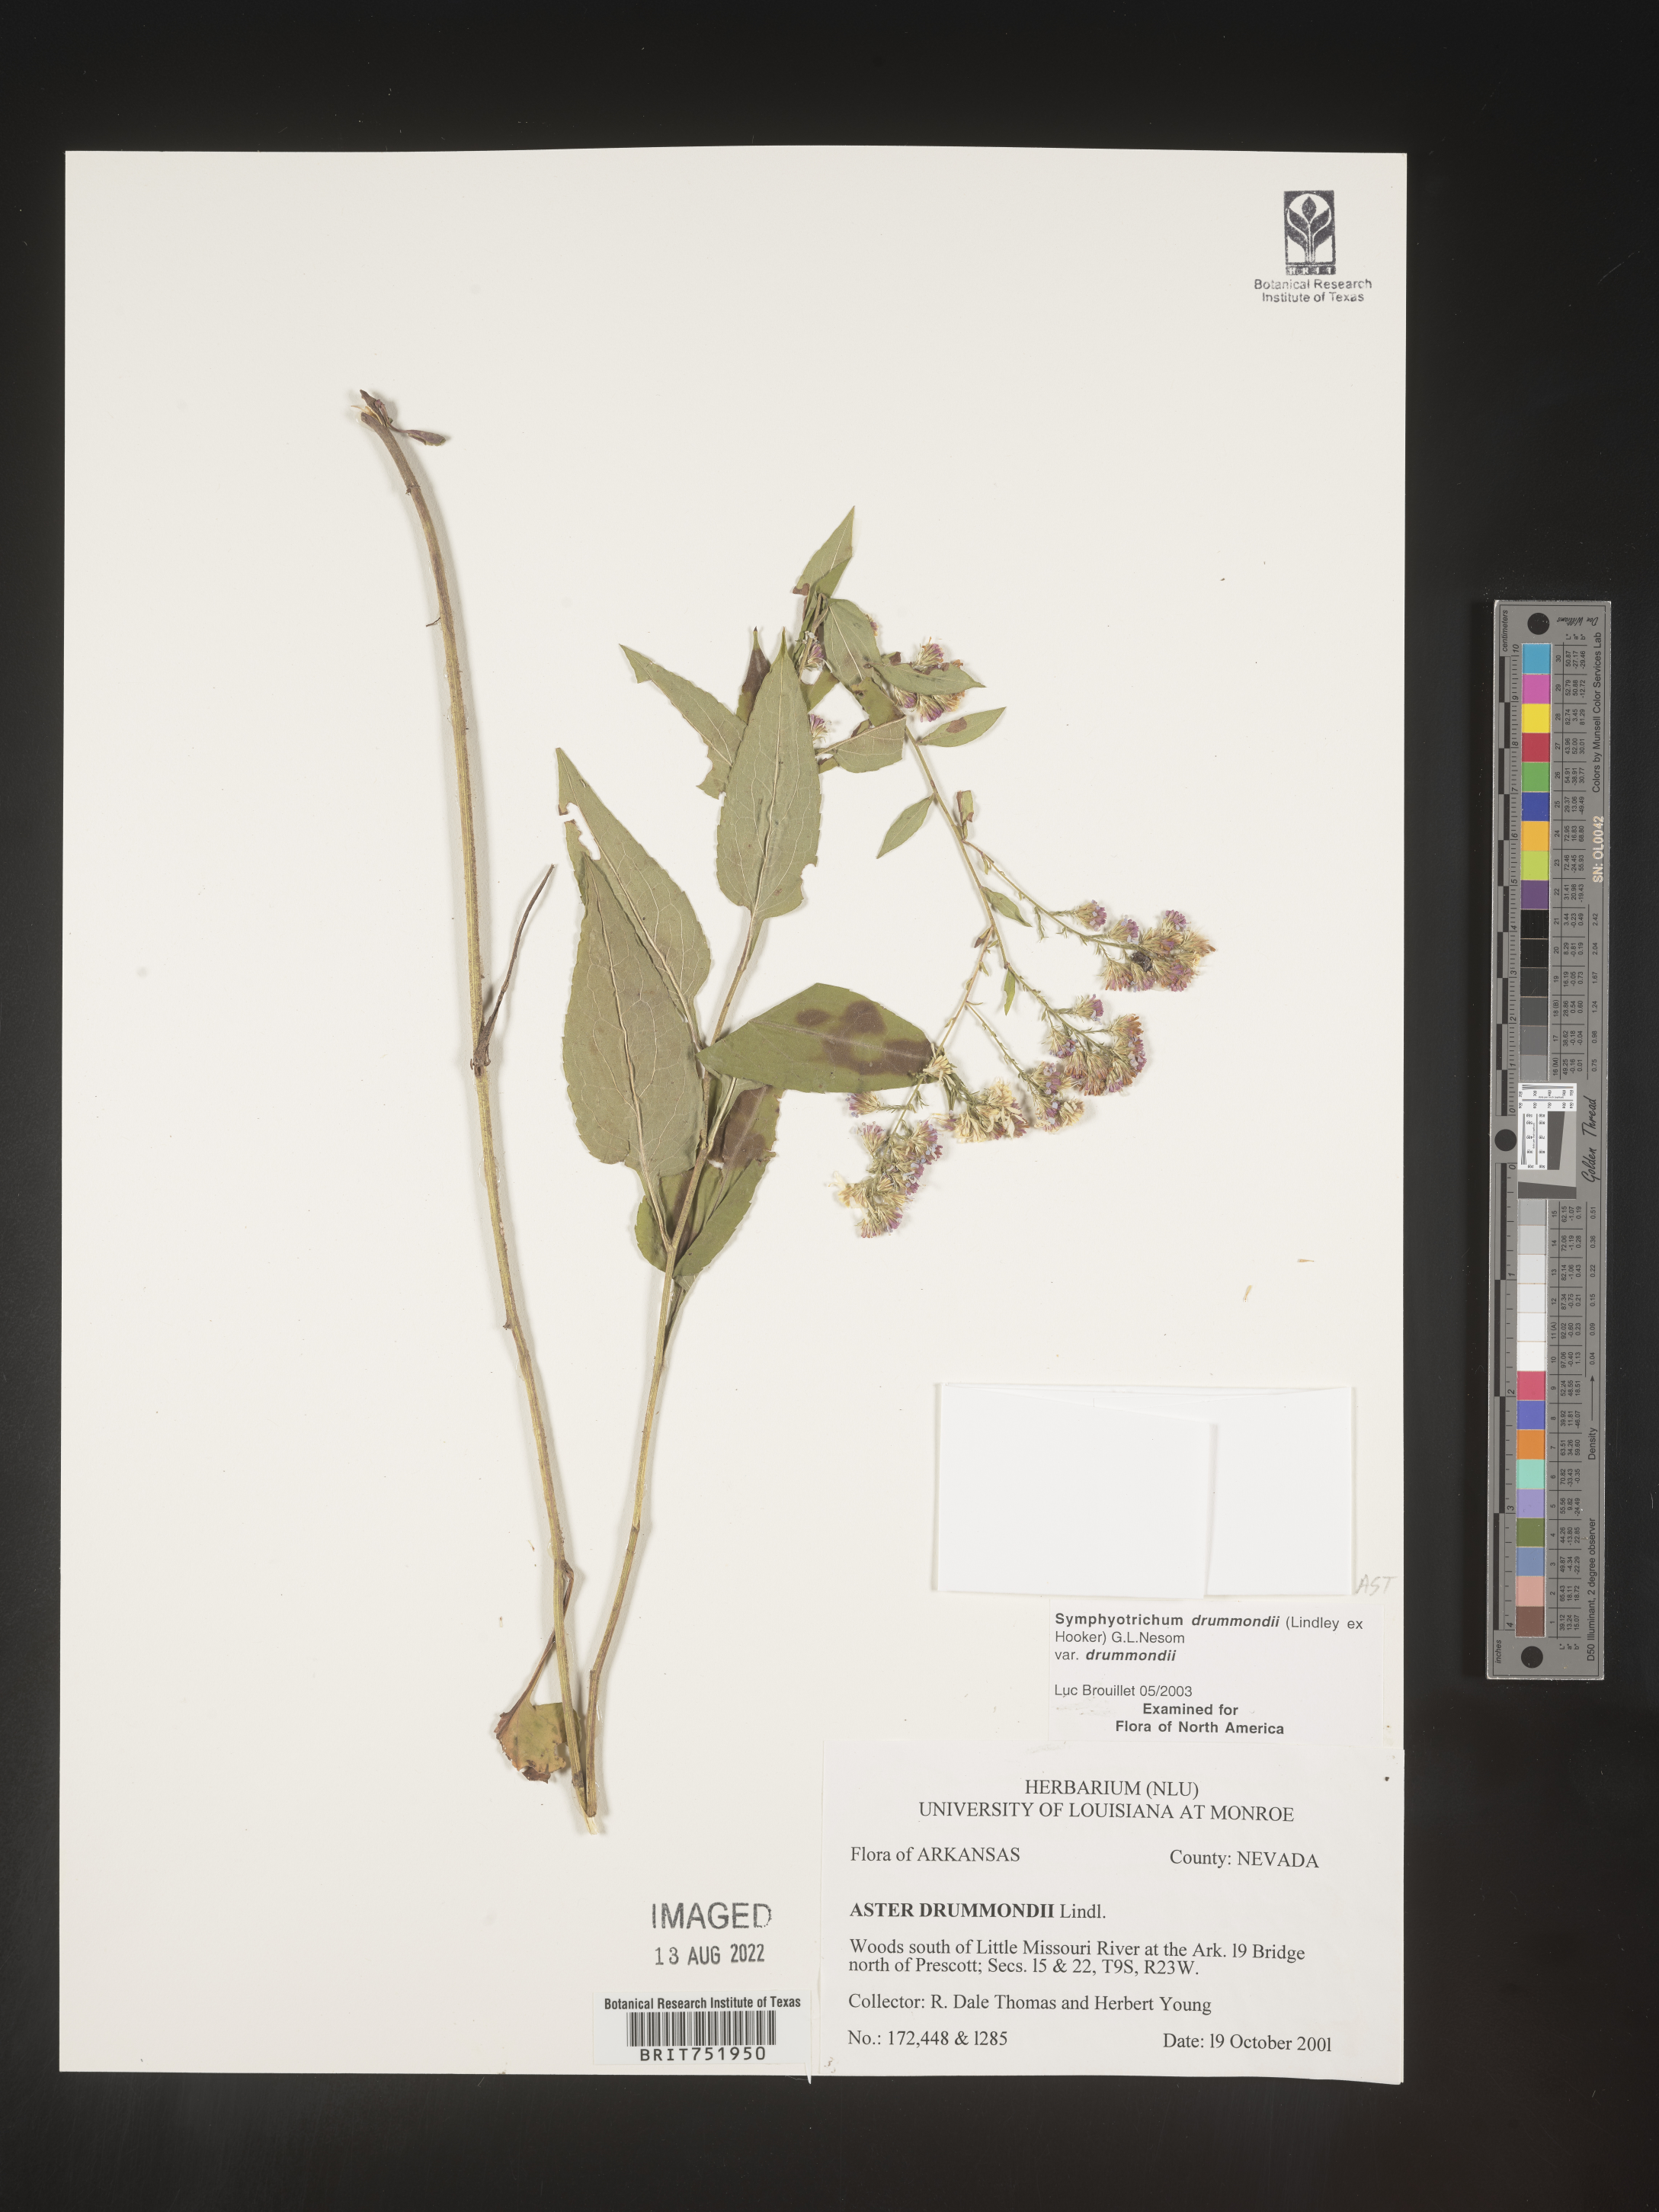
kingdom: Plantae
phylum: Tracheophyta
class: Magnoliopsida
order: Asterales
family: Asteraceae
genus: Symphyotrichum
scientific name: Symphyotrichum drummondii
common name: Drummond's aster
